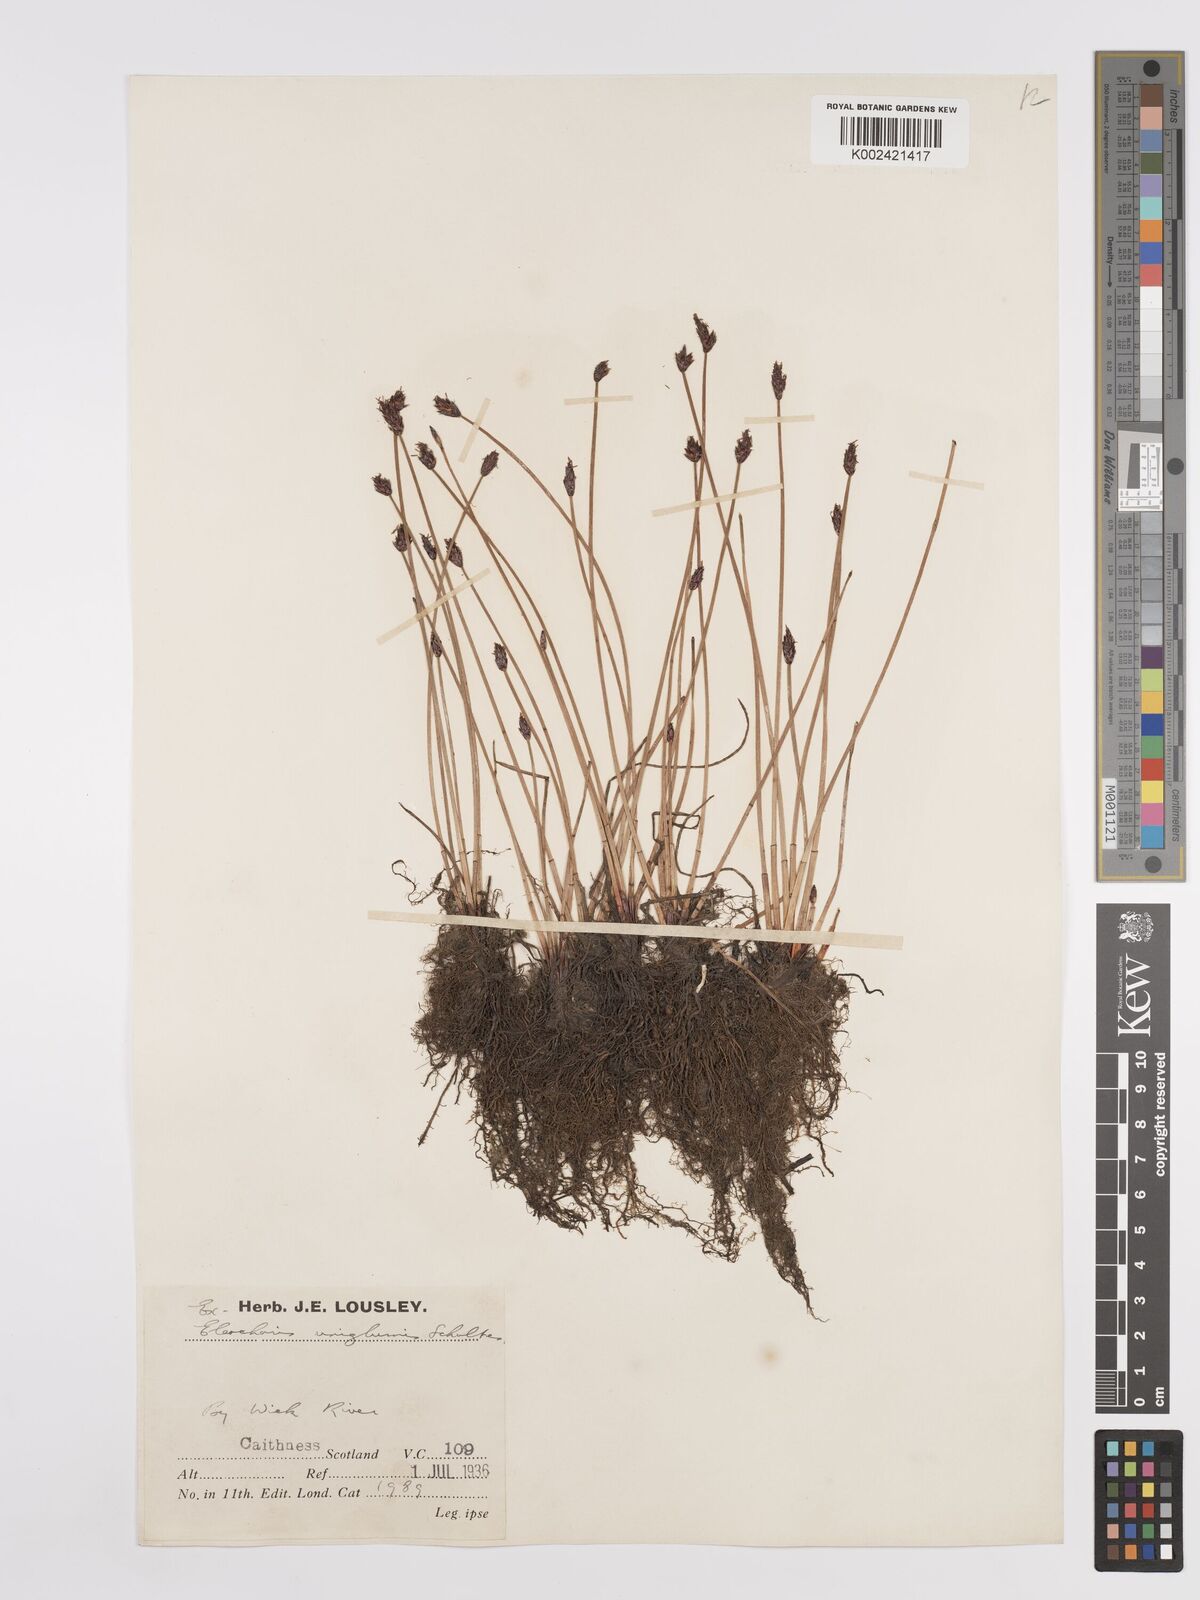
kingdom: Plantae
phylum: Tracheophyta
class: Liliopsida
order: Poales
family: Cyperaceae
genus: Eleocharis
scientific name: Eleocharis uniglumis
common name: Slender spike-rush
